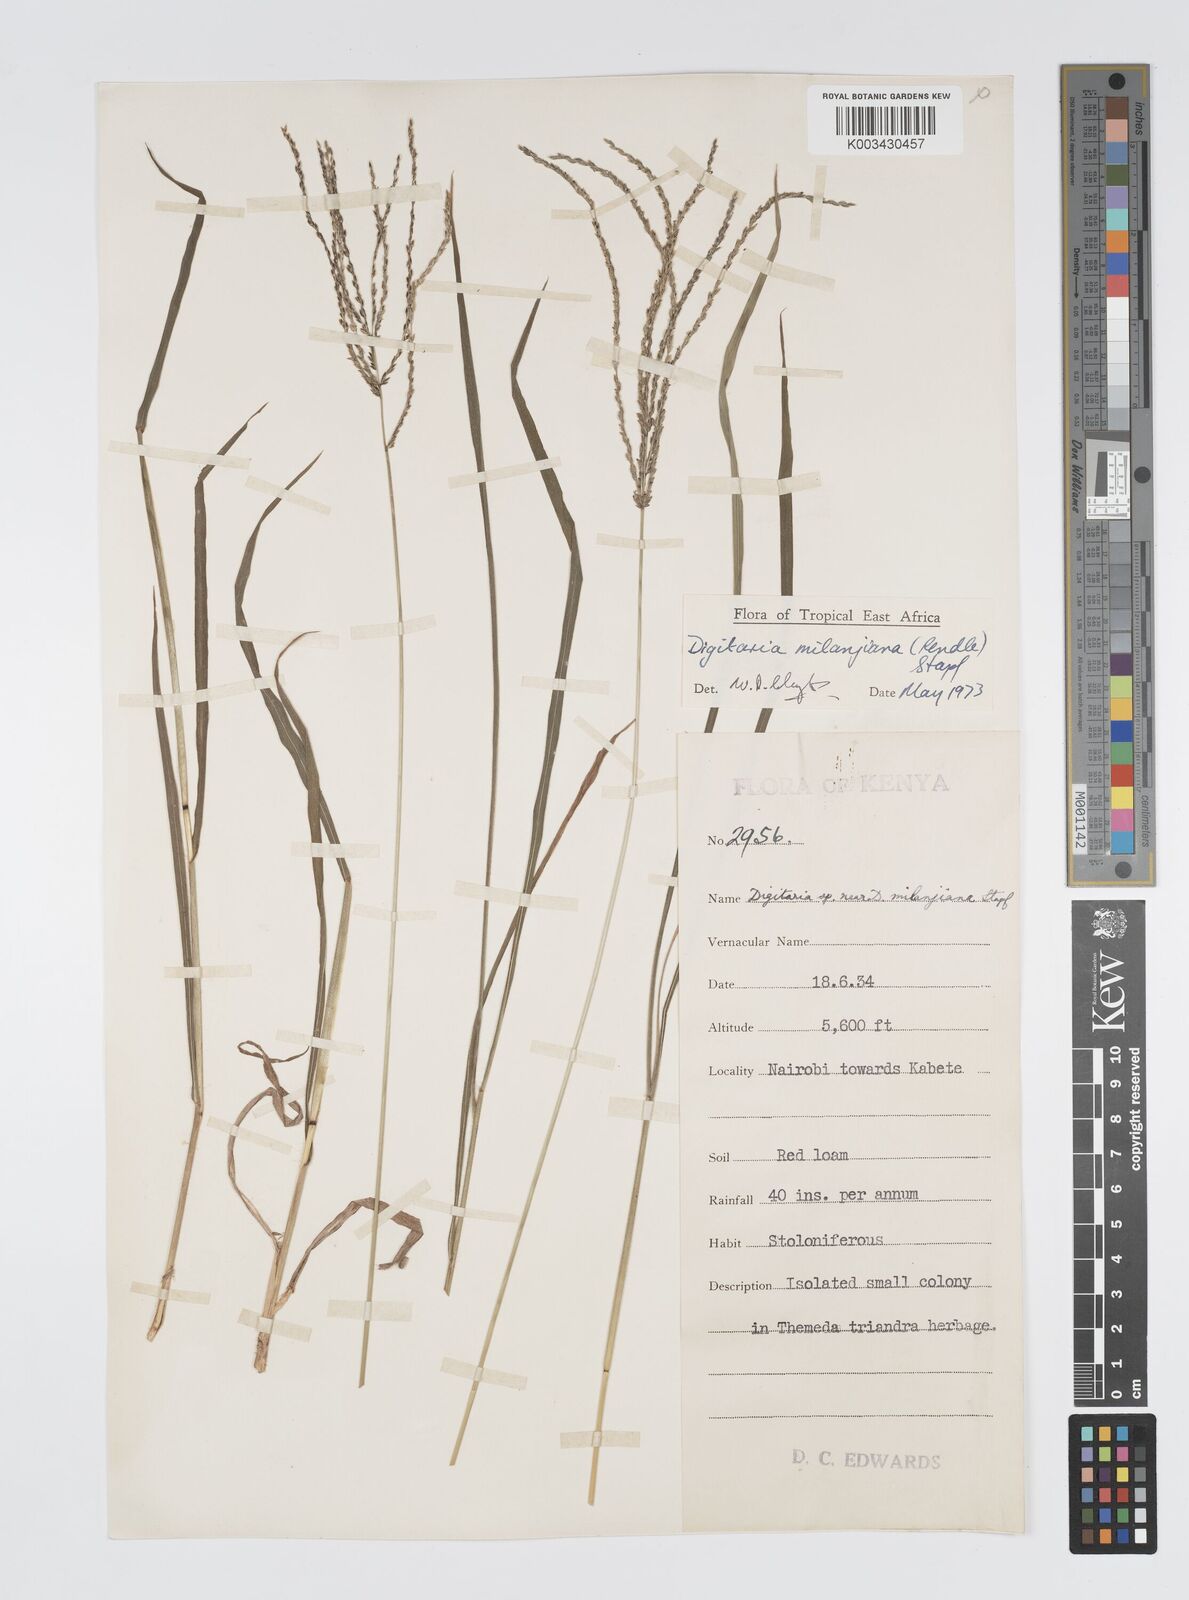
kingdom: Plantae
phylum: Tracheophyta
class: Liliopsida
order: Poales
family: Poaceae
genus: Digitaria
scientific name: Digitaria milanjiana
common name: Madagascar crabgrass
